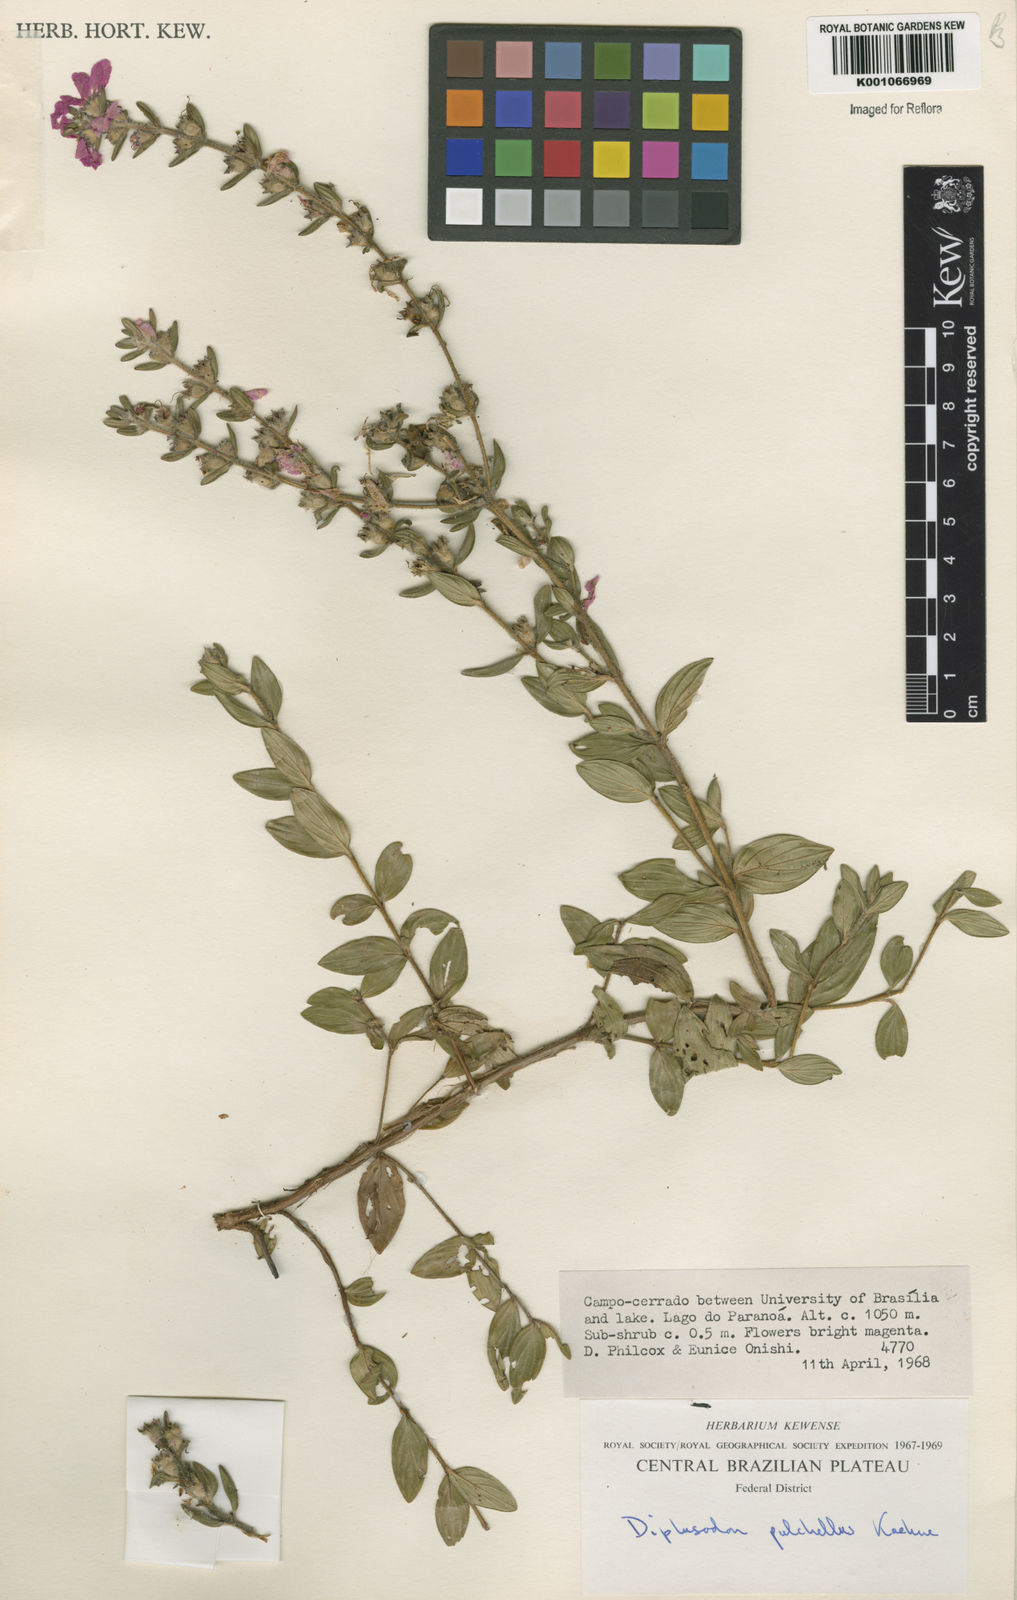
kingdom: Plantae
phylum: Tracheophyta
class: Magnoliopsida
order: Myrtales
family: Lythraceae
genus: Diplusodon
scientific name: Diplusodon villosus
